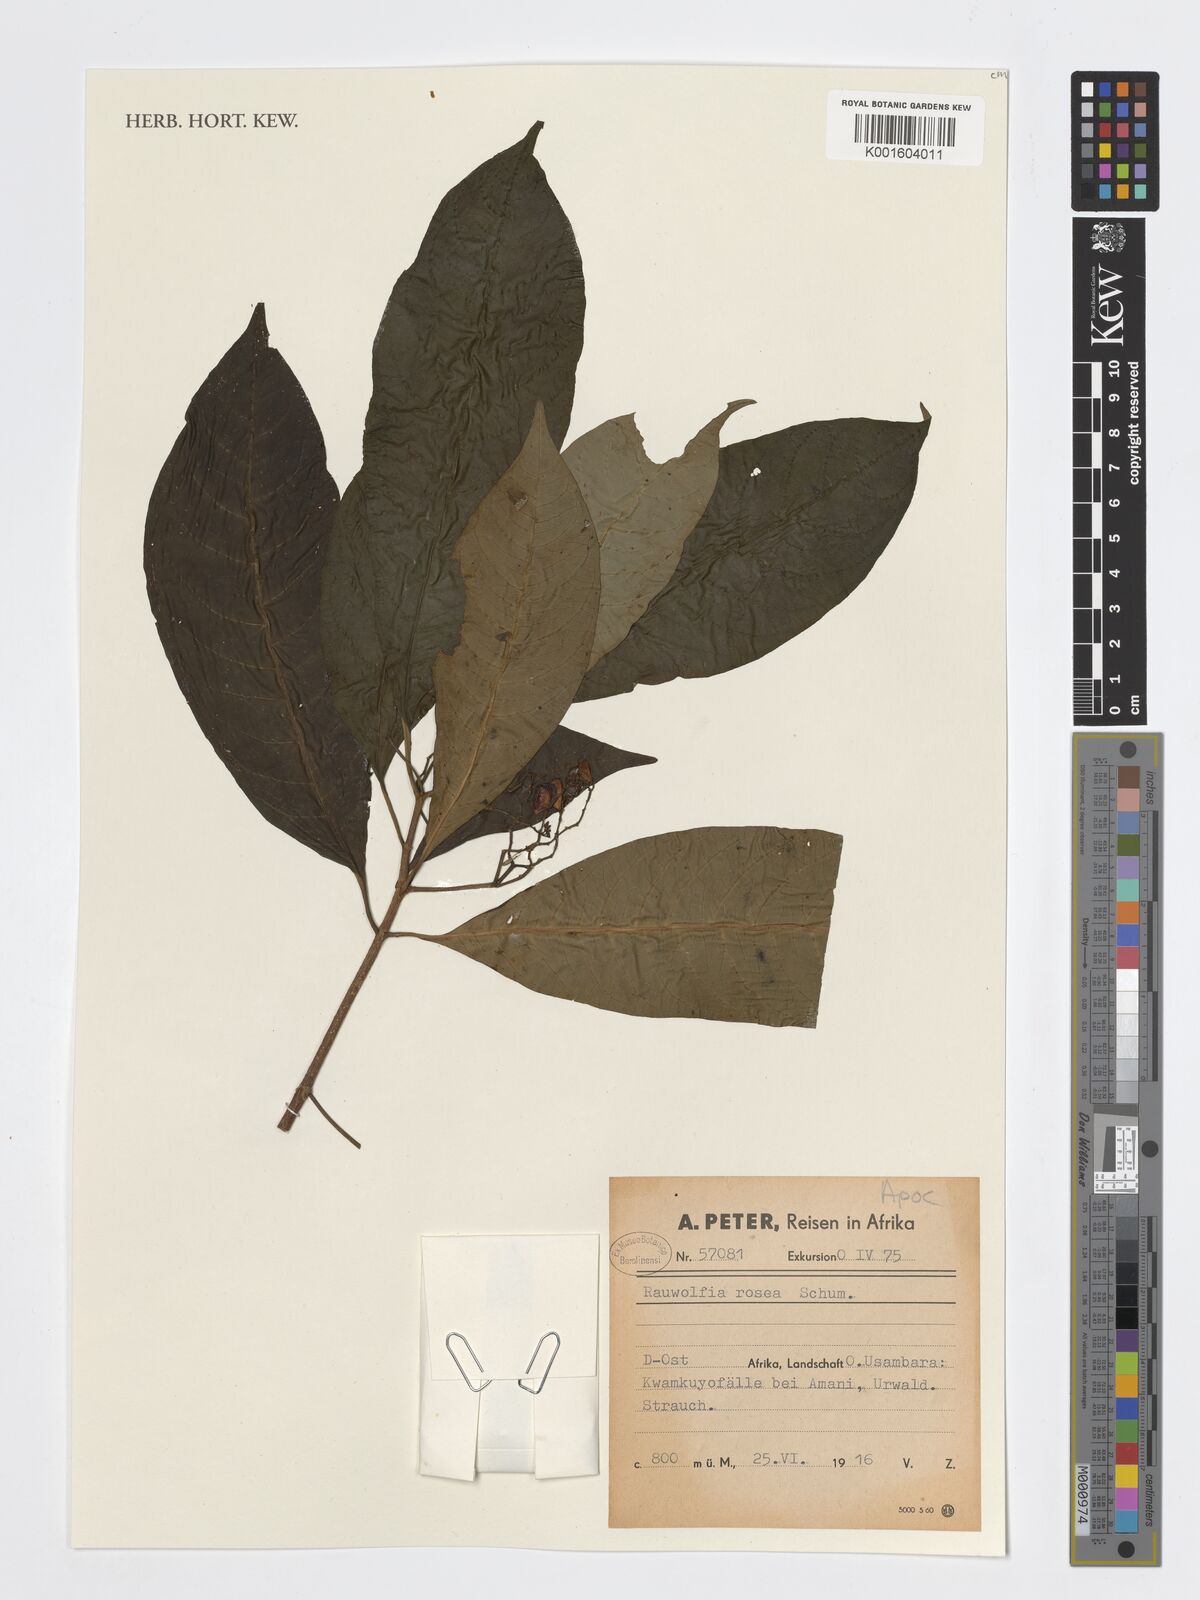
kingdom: Plantae
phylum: Tracheophyta
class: Magnoliopsida
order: Gentianales
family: Apocynaceae
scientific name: Apocynaceae
